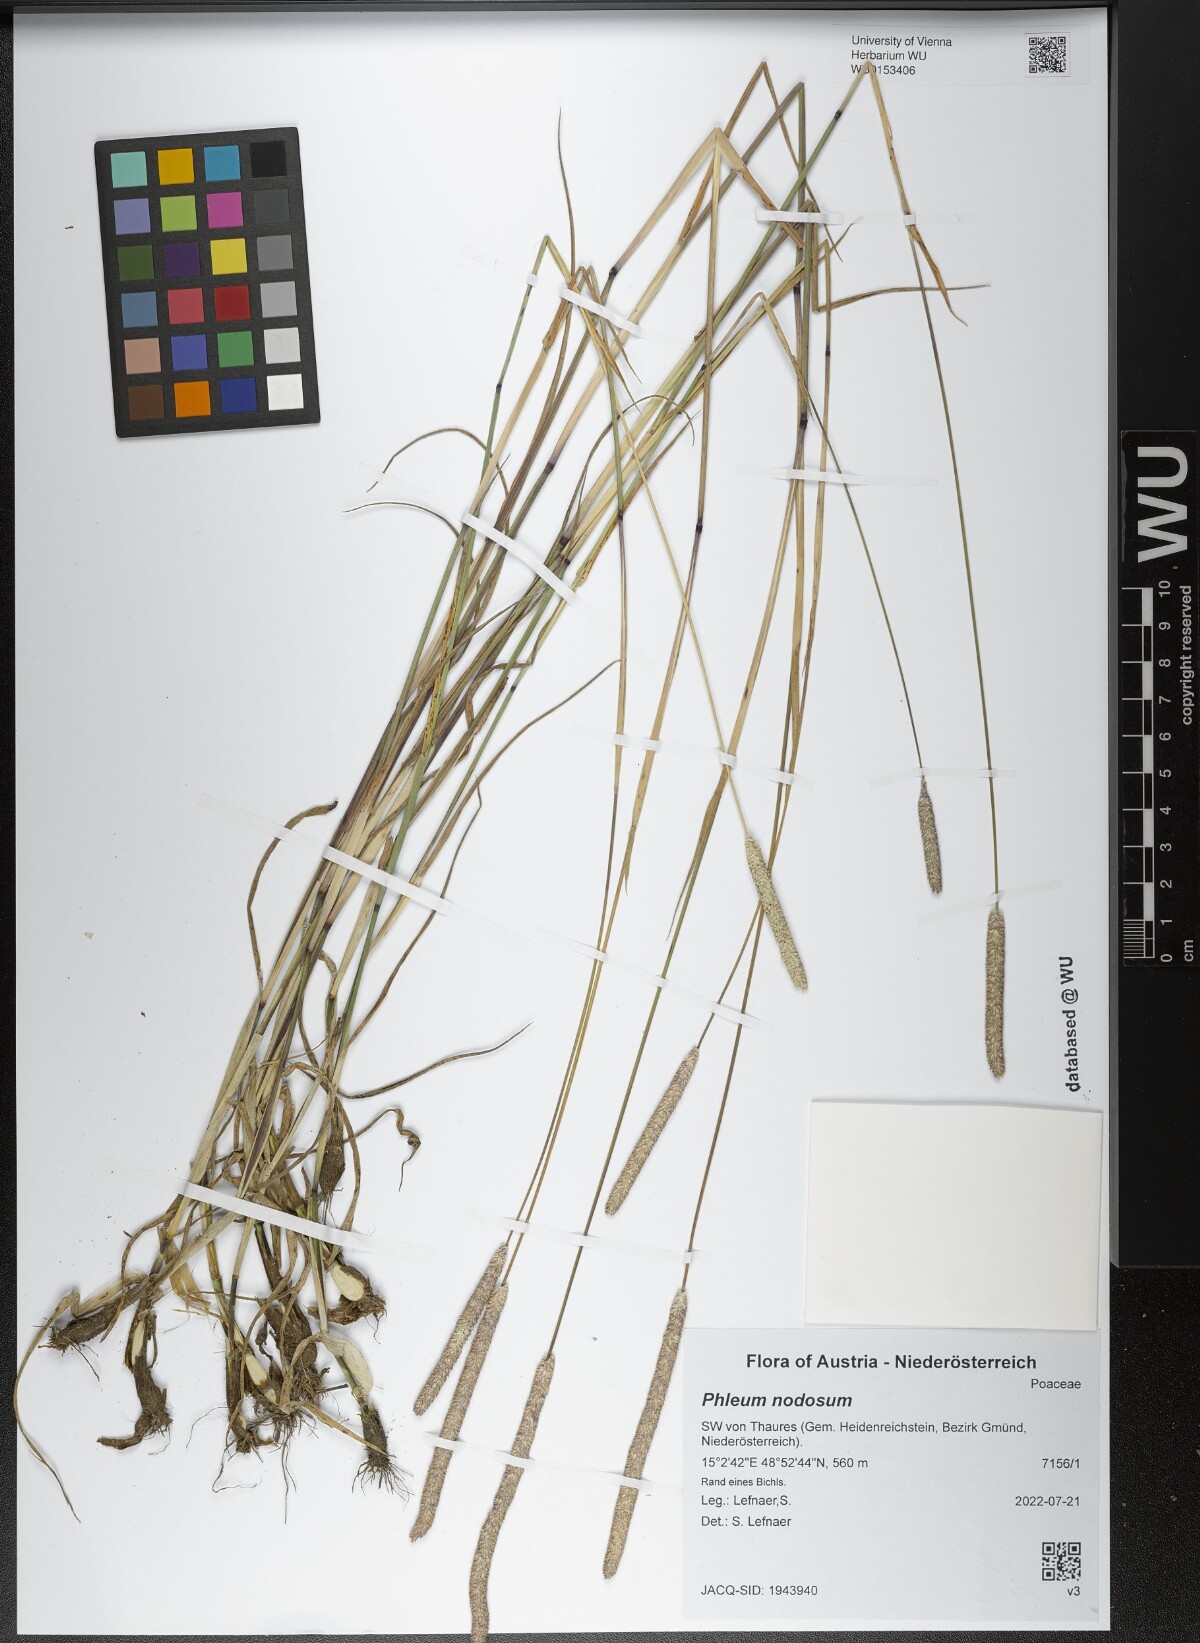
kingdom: Plantae
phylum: Tracheophyta
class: Liliopsida
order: Poales
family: Poaceae
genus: Phleum
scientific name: Phleum pratense
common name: Timothy grass
